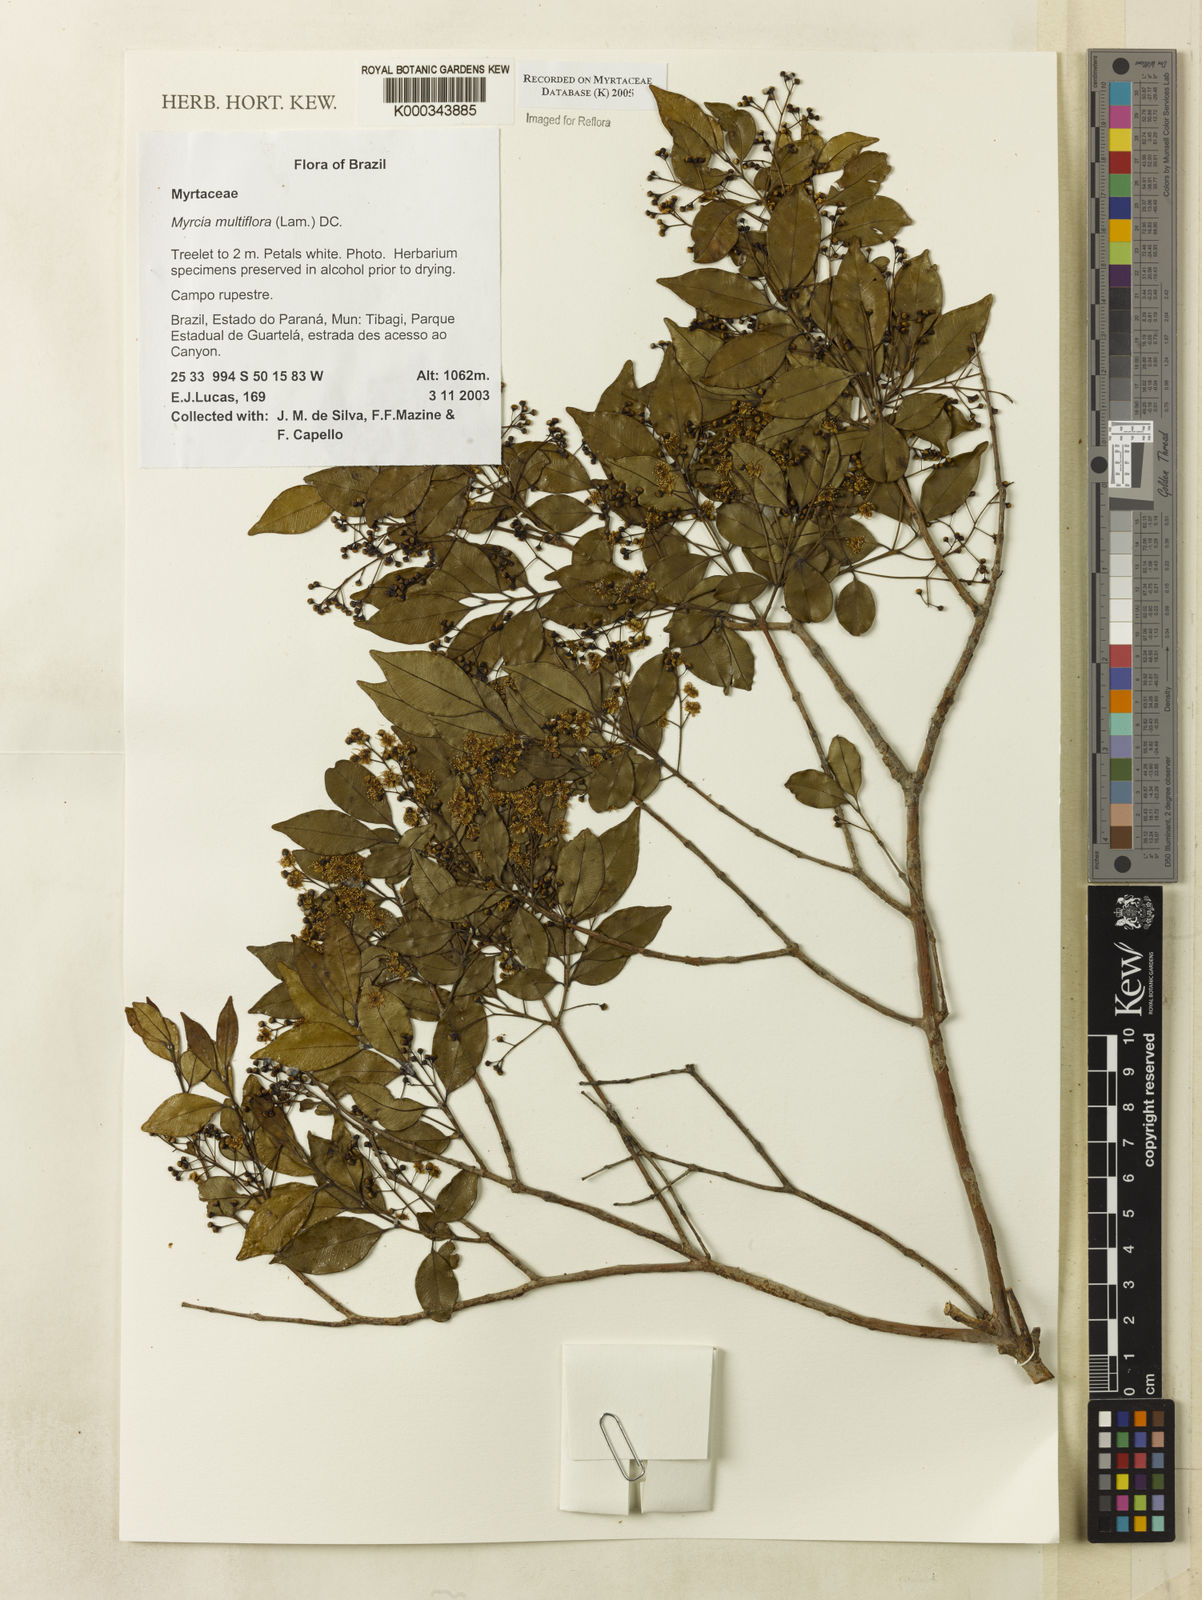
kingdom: Plantae
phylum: Tracheophyta
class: Magnoliopsida
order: Myrtales
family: Myrtaceae
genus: Myrcia
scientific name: Myrcia multiflora
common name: Pedra hume
